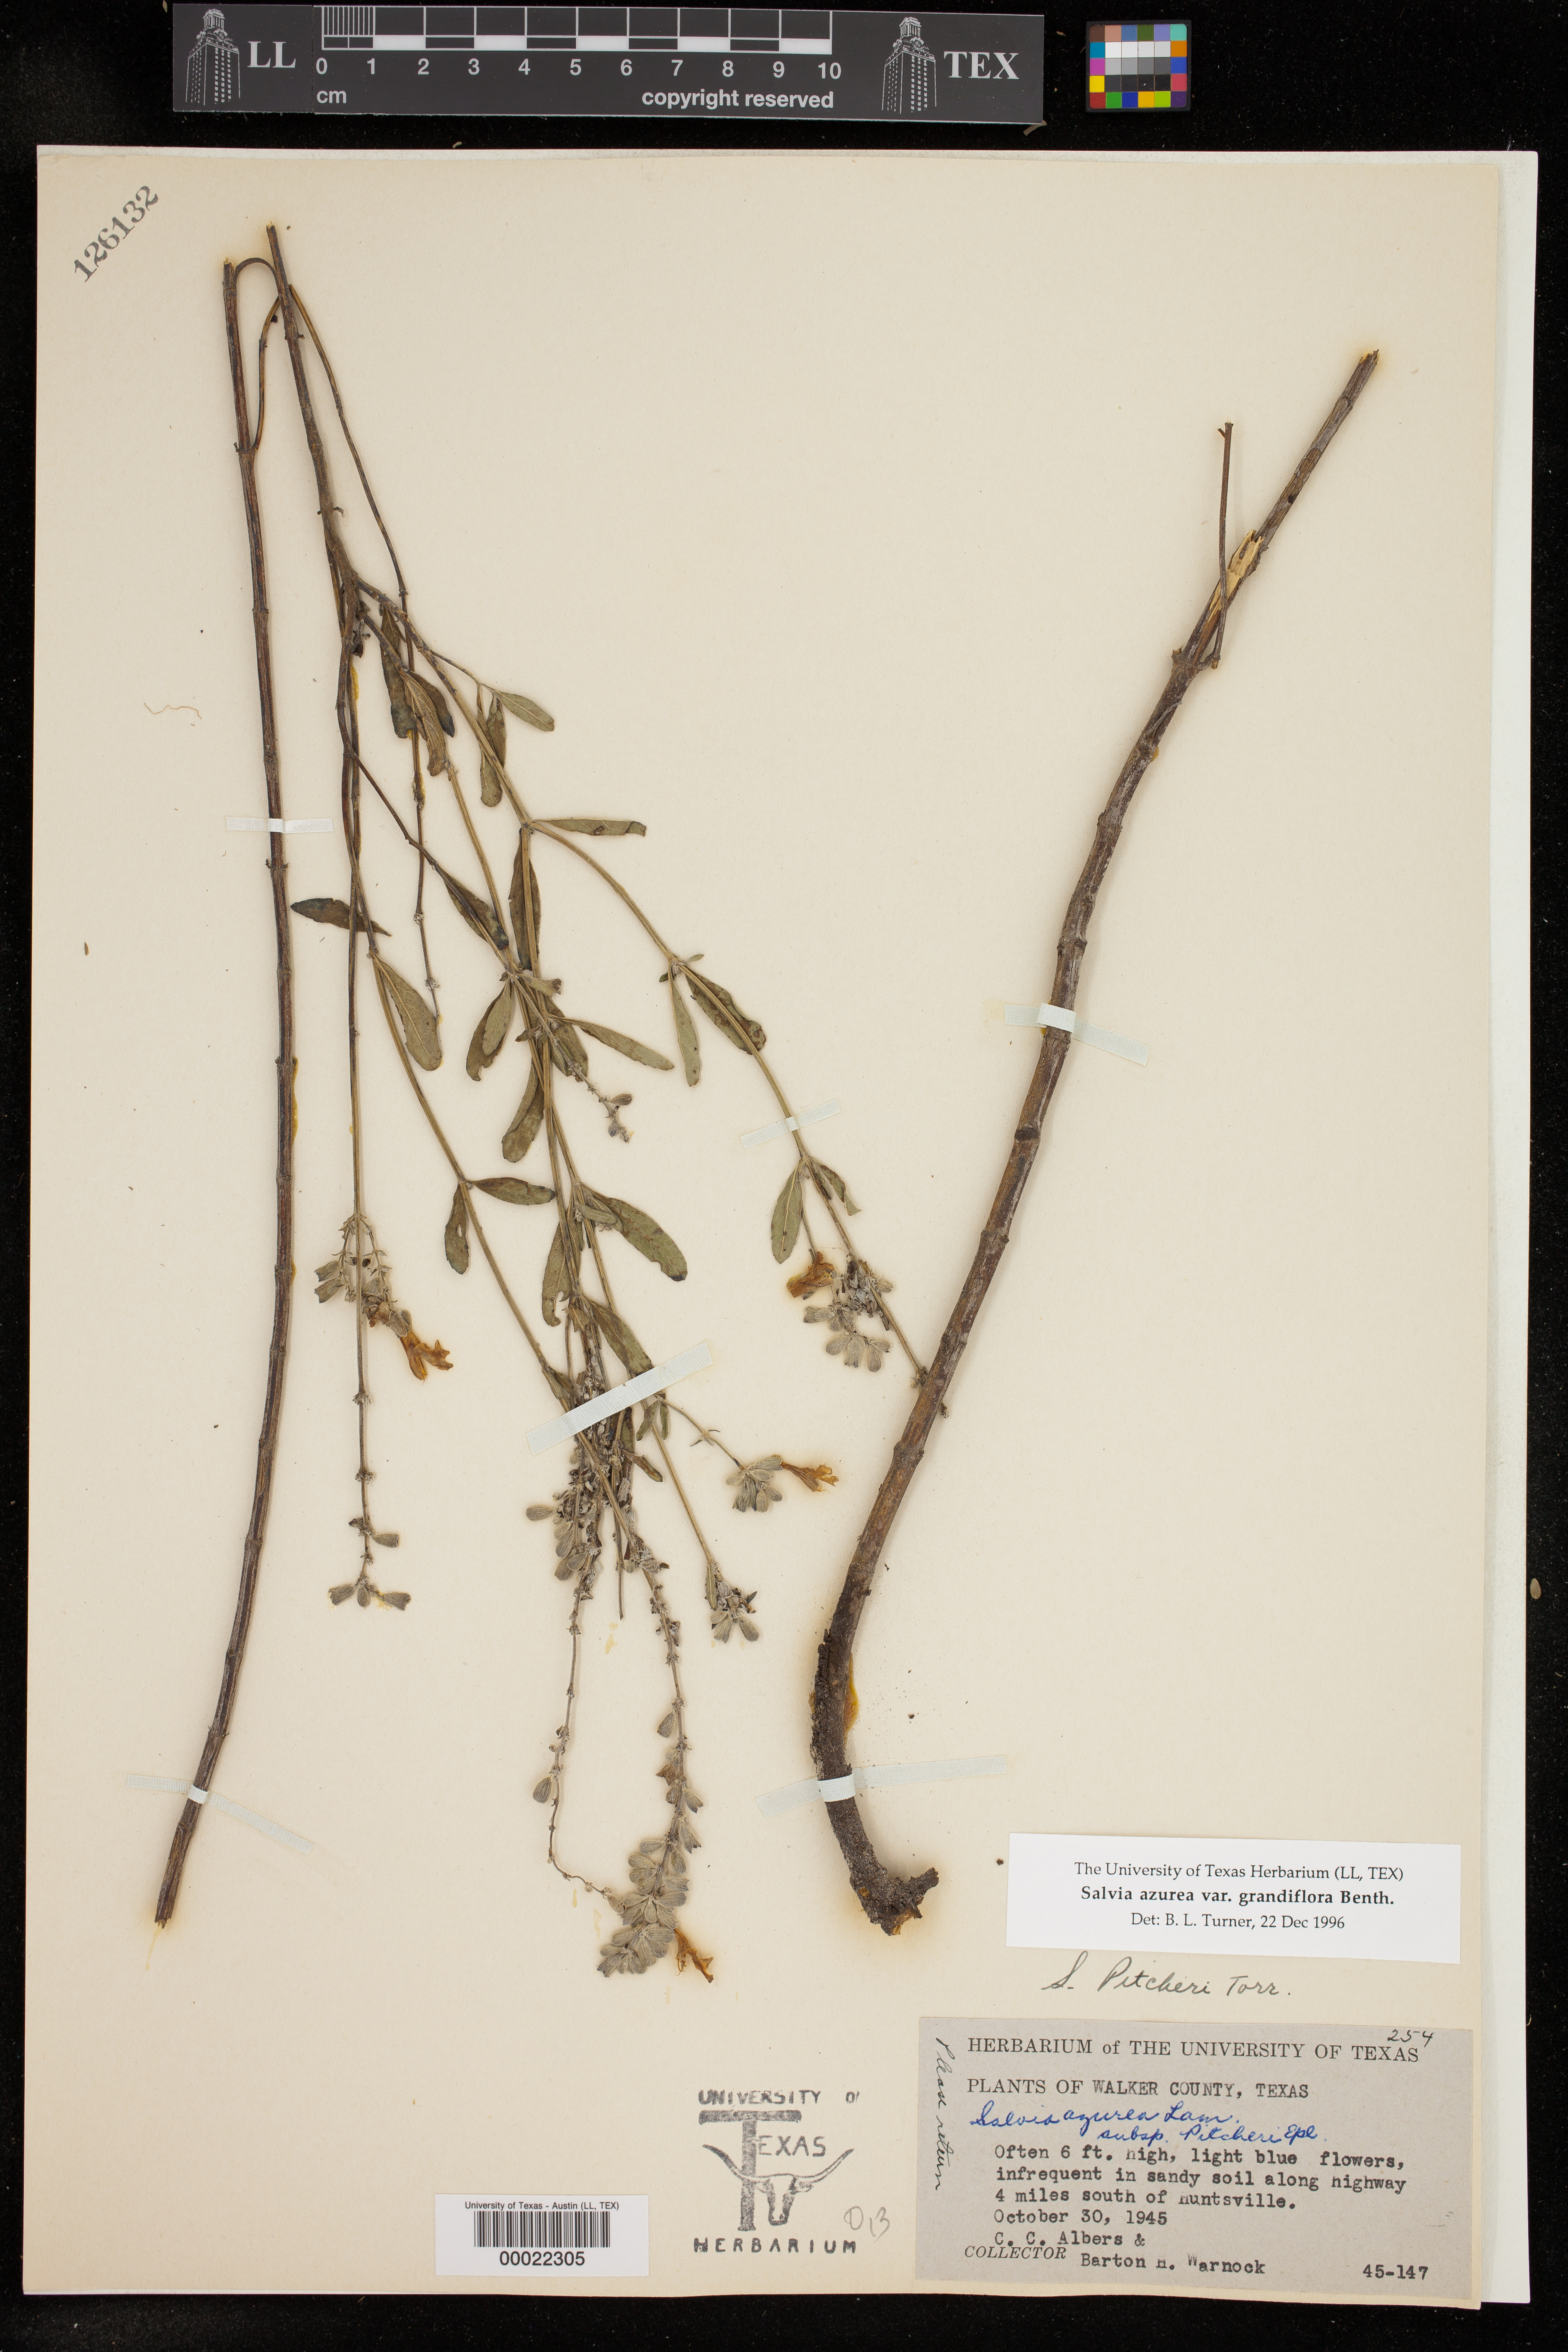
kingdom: Plantae
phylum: Tracheophyta
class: Magnoliopsida
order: Lamiales
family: Lamiaceae
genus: Salvia
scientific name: Salvia azurea
